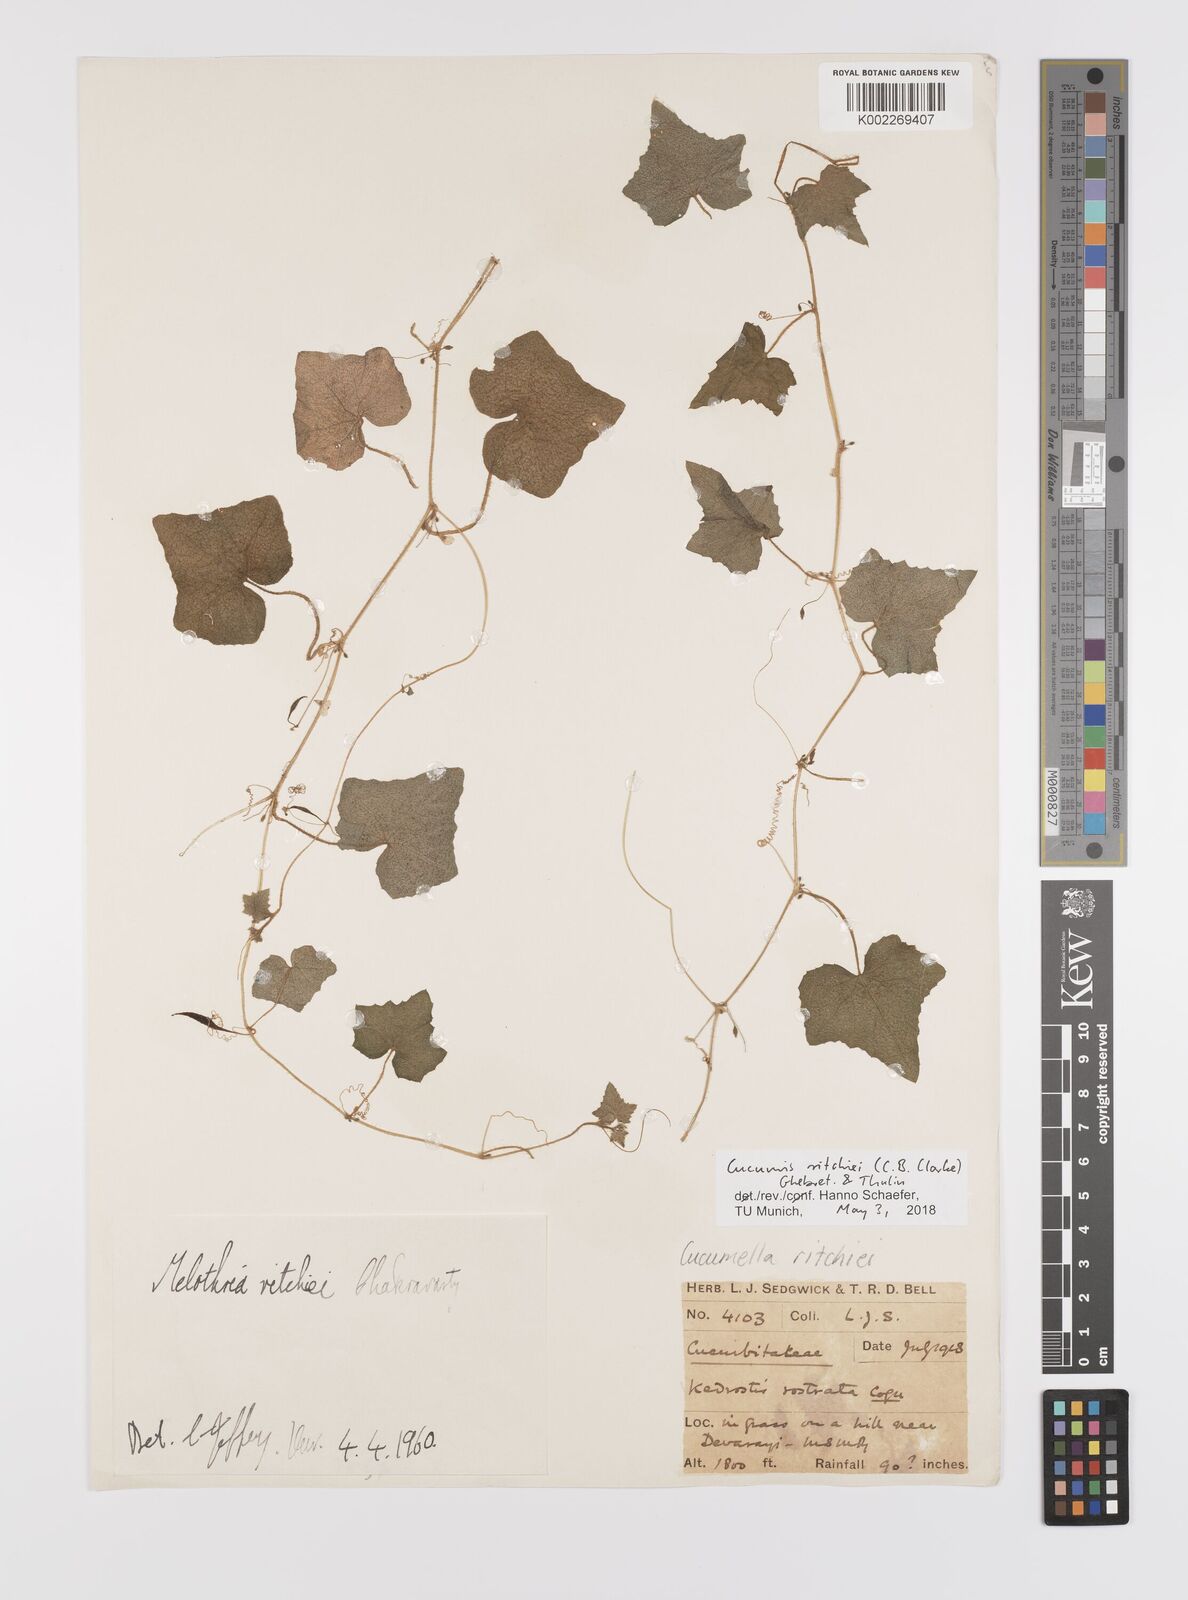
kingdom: Plantae
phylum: Tracheophyta
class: Magnoliopsida
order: Cucurbitales
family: Cucurbitaceae
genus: Cucumis
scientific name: Cucumis indicus
